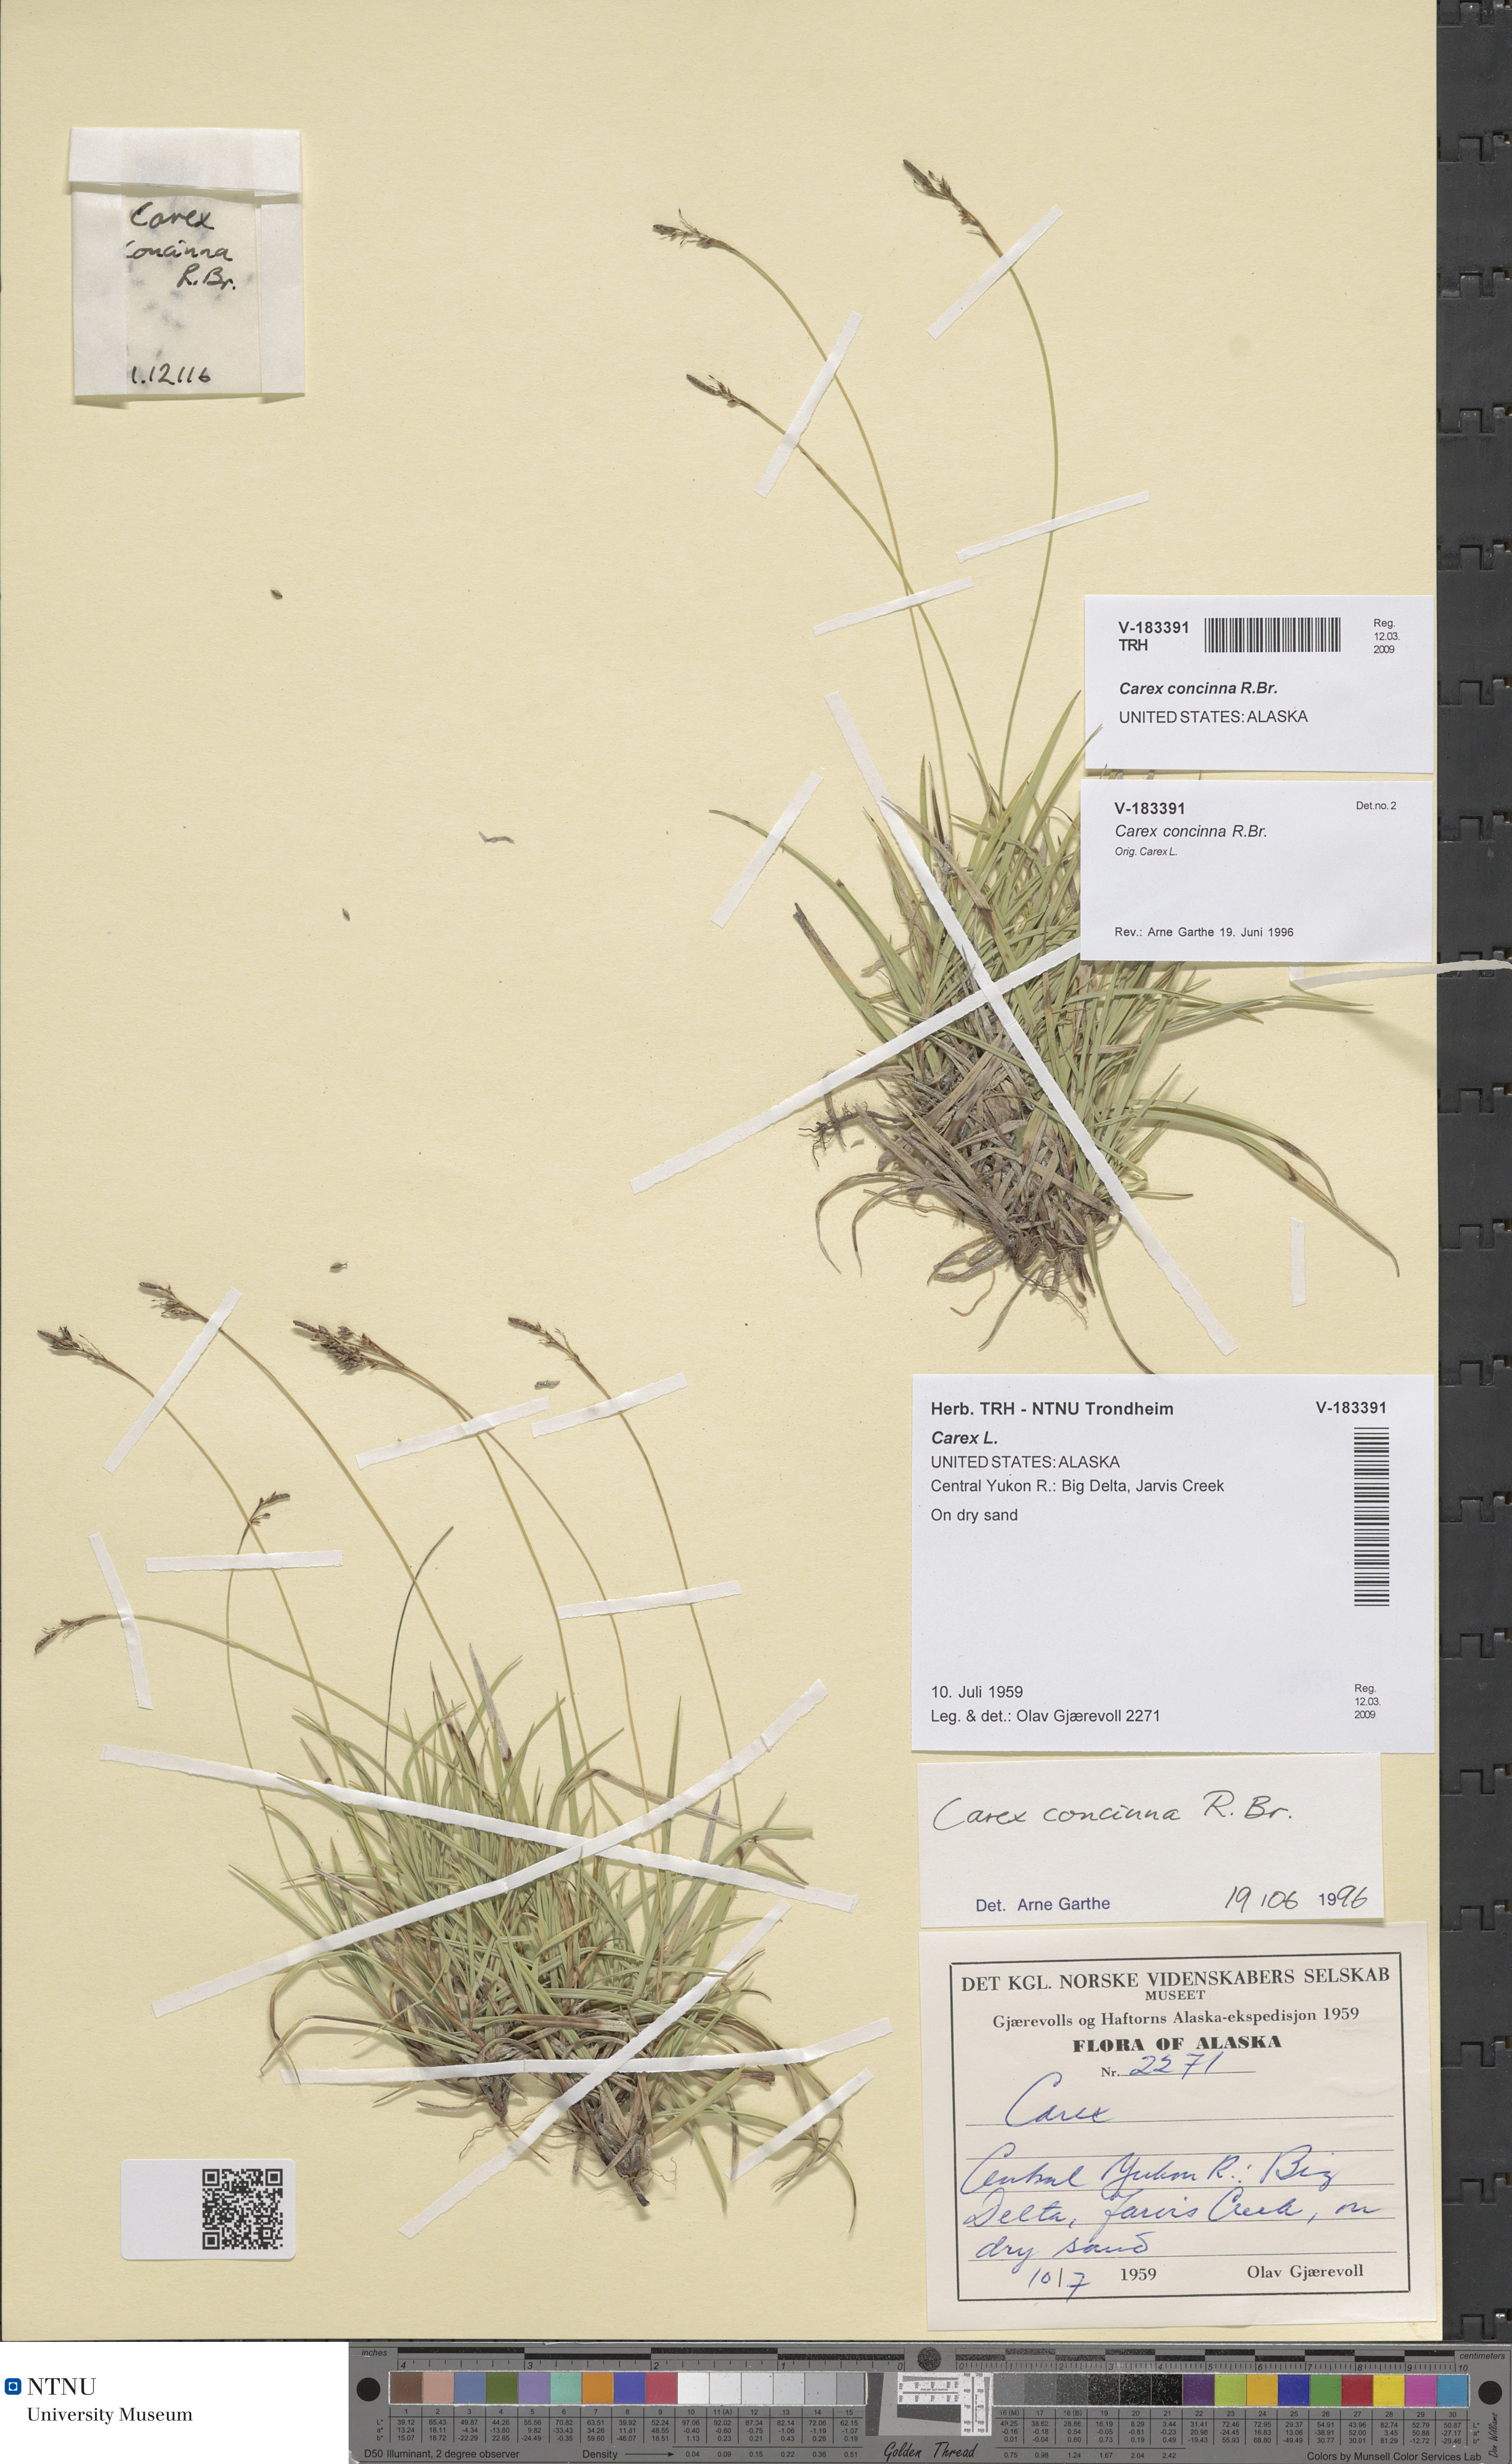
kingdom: Plantae
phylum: Tracheophyta
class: Liliopsida
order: Poales
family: Cyperaceae
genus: Carex
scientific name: Carex concinna
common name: Beautiful sedge
